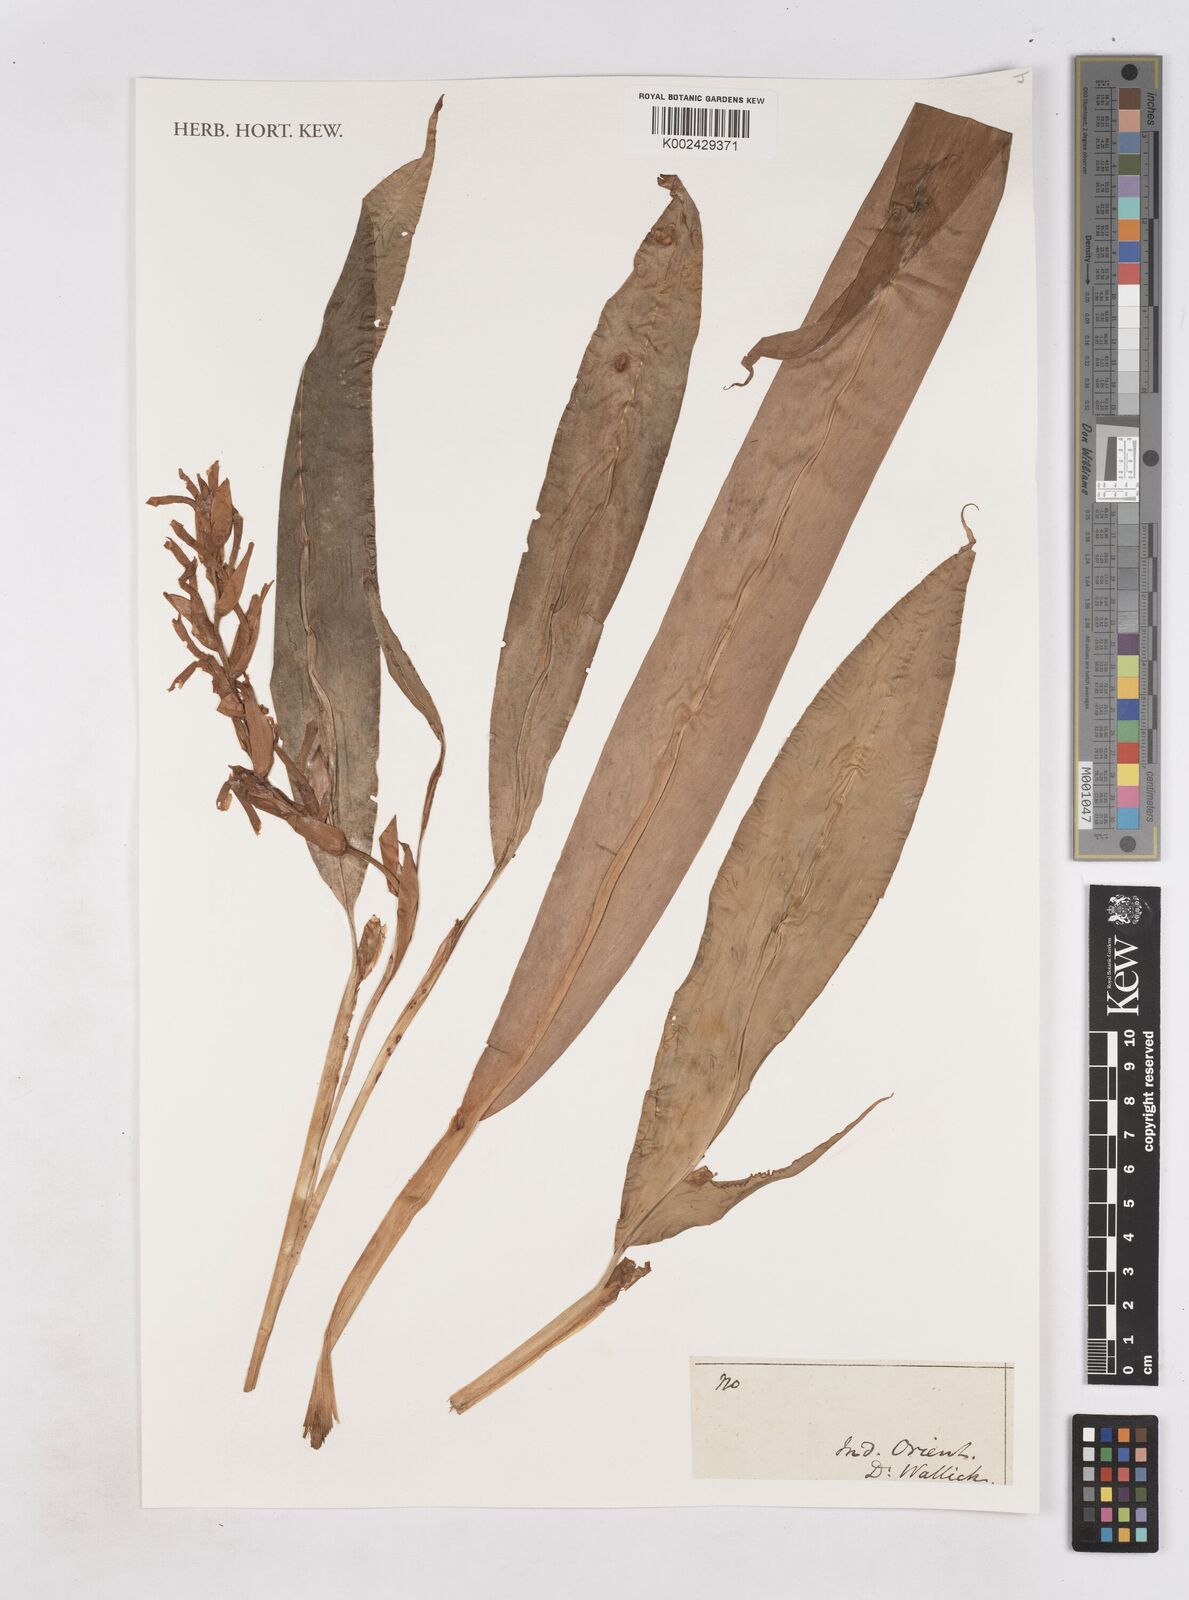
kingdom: Plantae
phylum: Tracheophyta
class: Liliopsida
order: Zingiberales
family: Zingiberaceae
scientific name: Zingiberaceae
